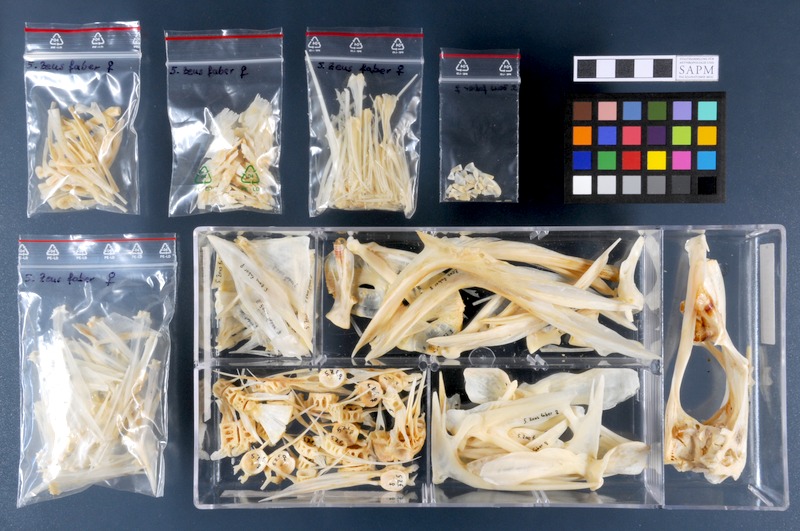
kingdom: Animalia
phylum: Chordata
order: Zeiformes
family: Zeidae
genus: Zeus
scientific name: Zeus faber
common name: John dory
